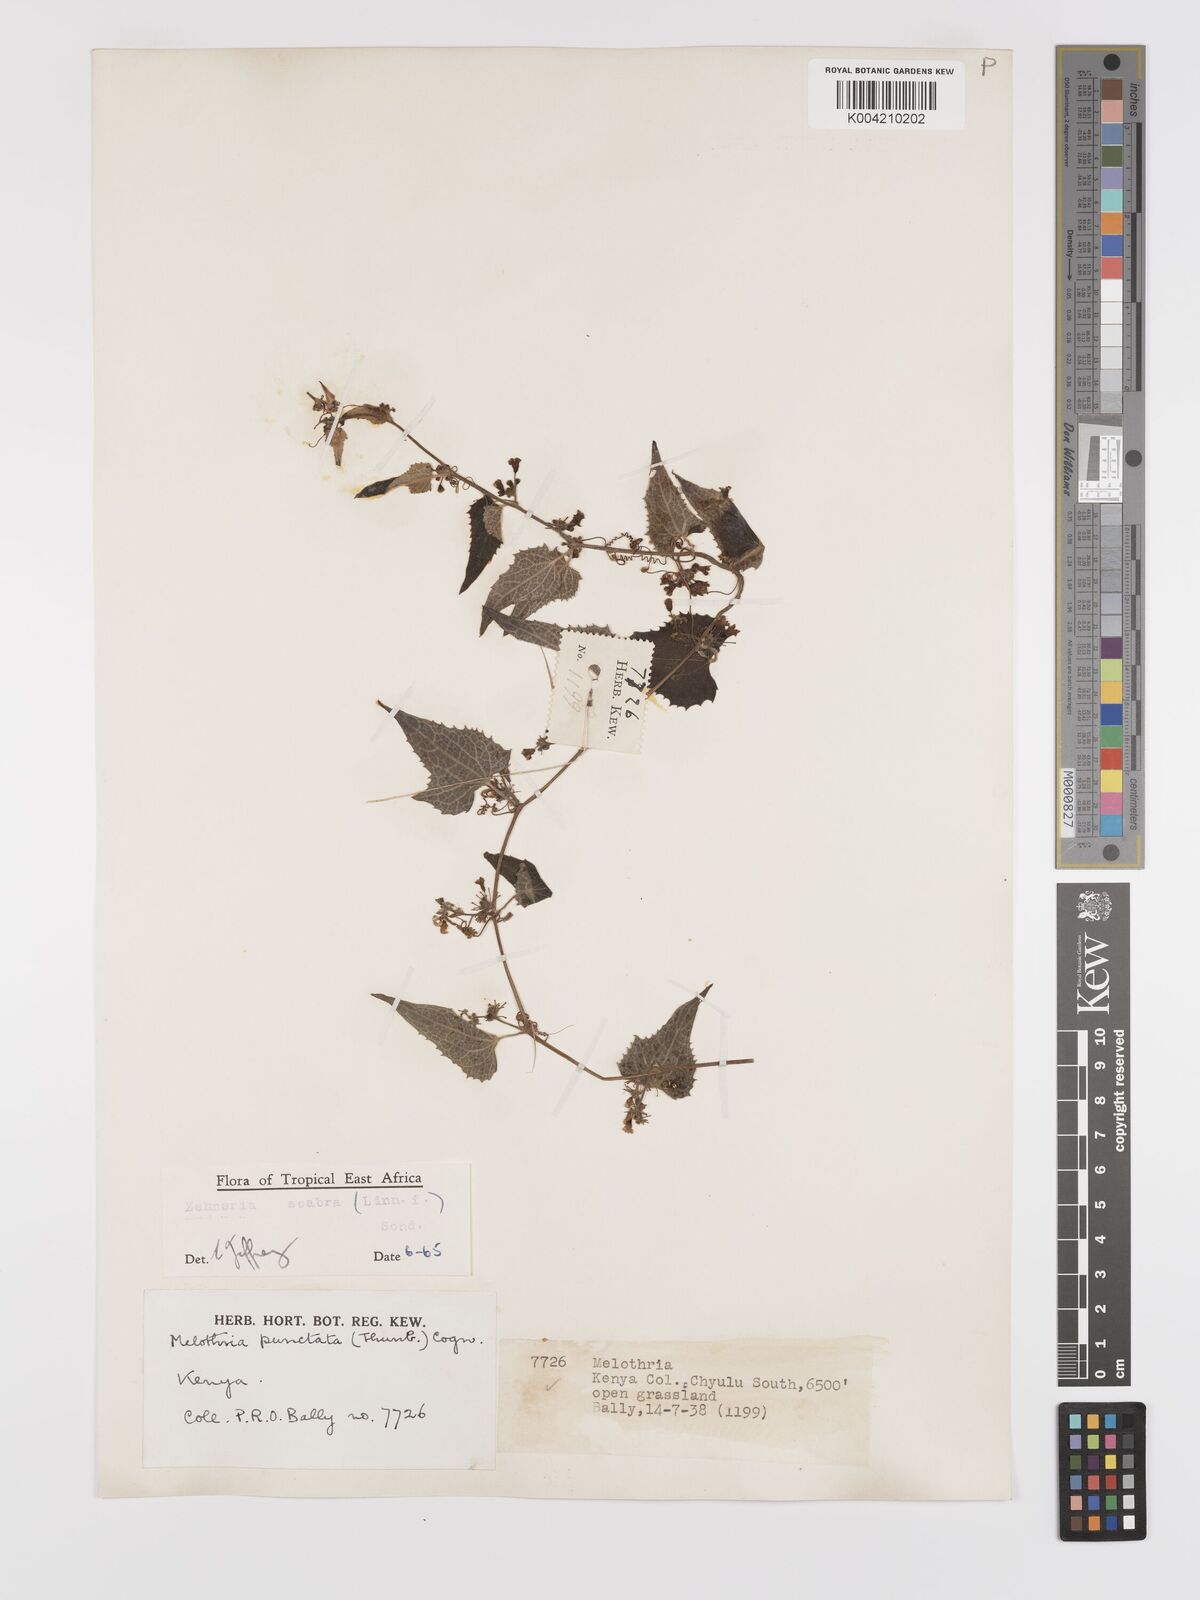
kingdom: Plantae
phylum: Tracheophyta
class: Magnoliopsida
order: Cucurbitales
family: Cucurbitaceae
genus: Zehneria
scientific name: Zehneria scabra
